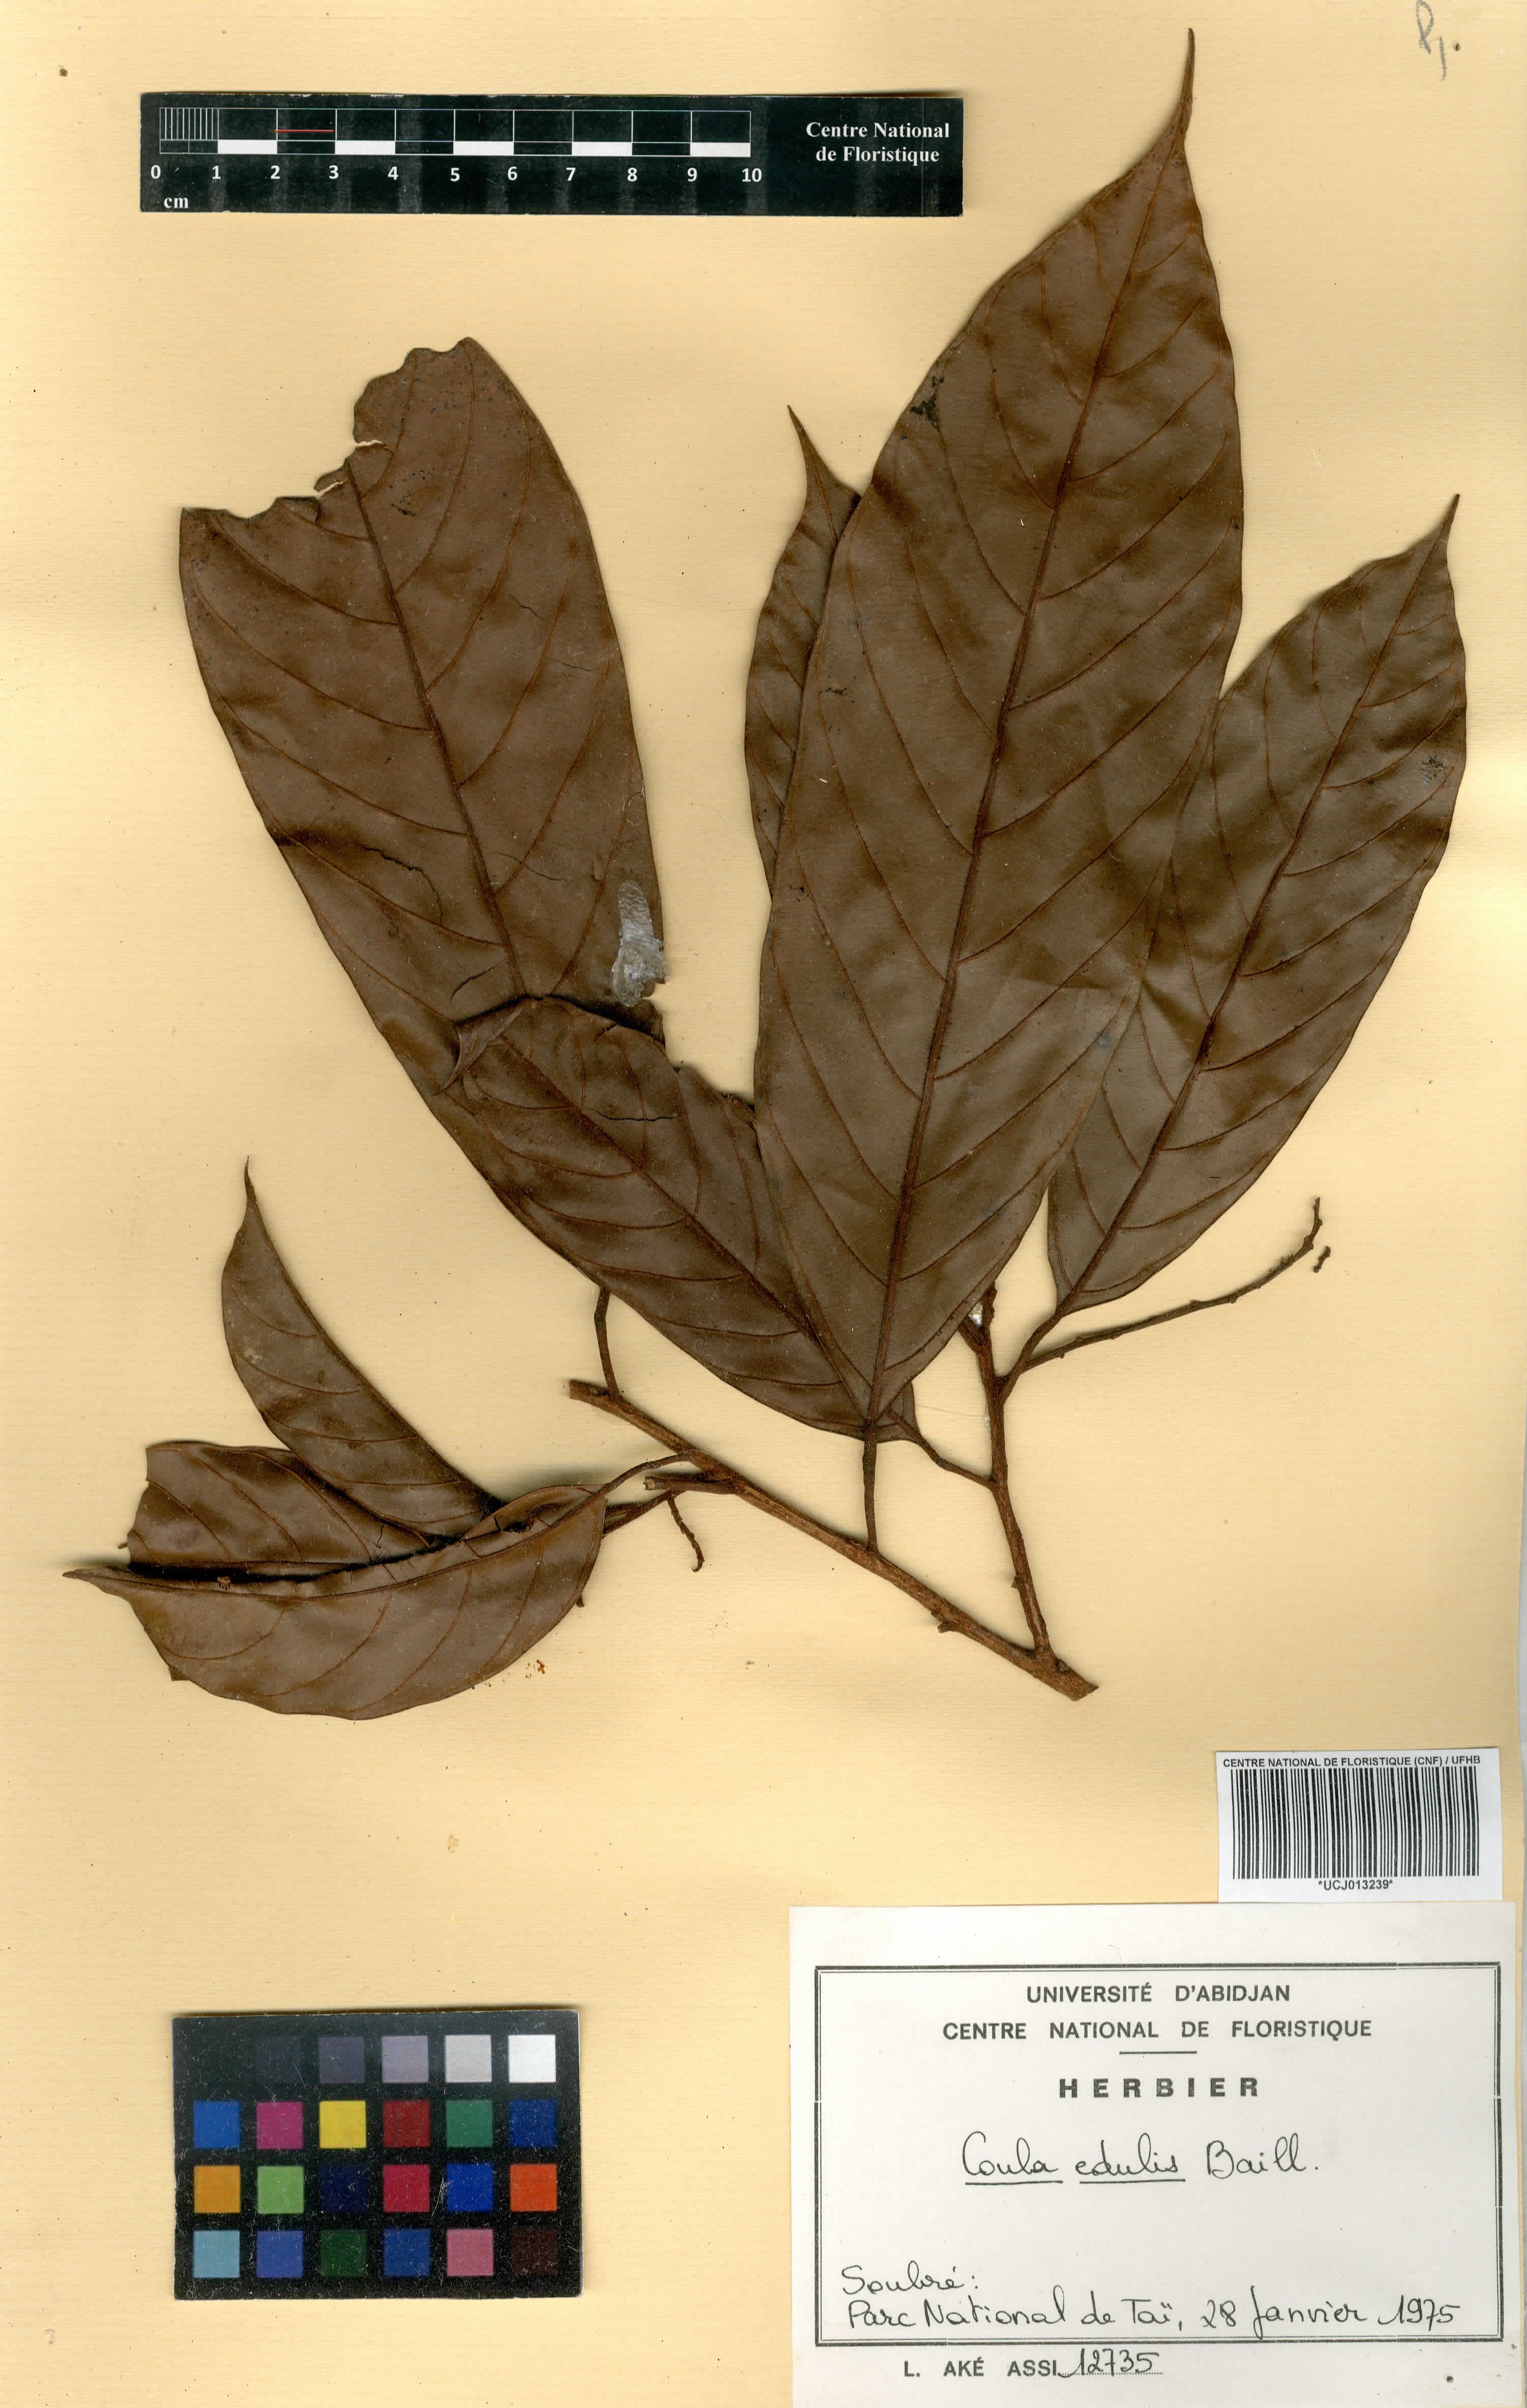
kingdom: Plantae
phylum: Tracheophyta
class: Magnoliopsida
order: Santalales
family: Coulaceae
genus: Coula
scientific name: Coula edulis
